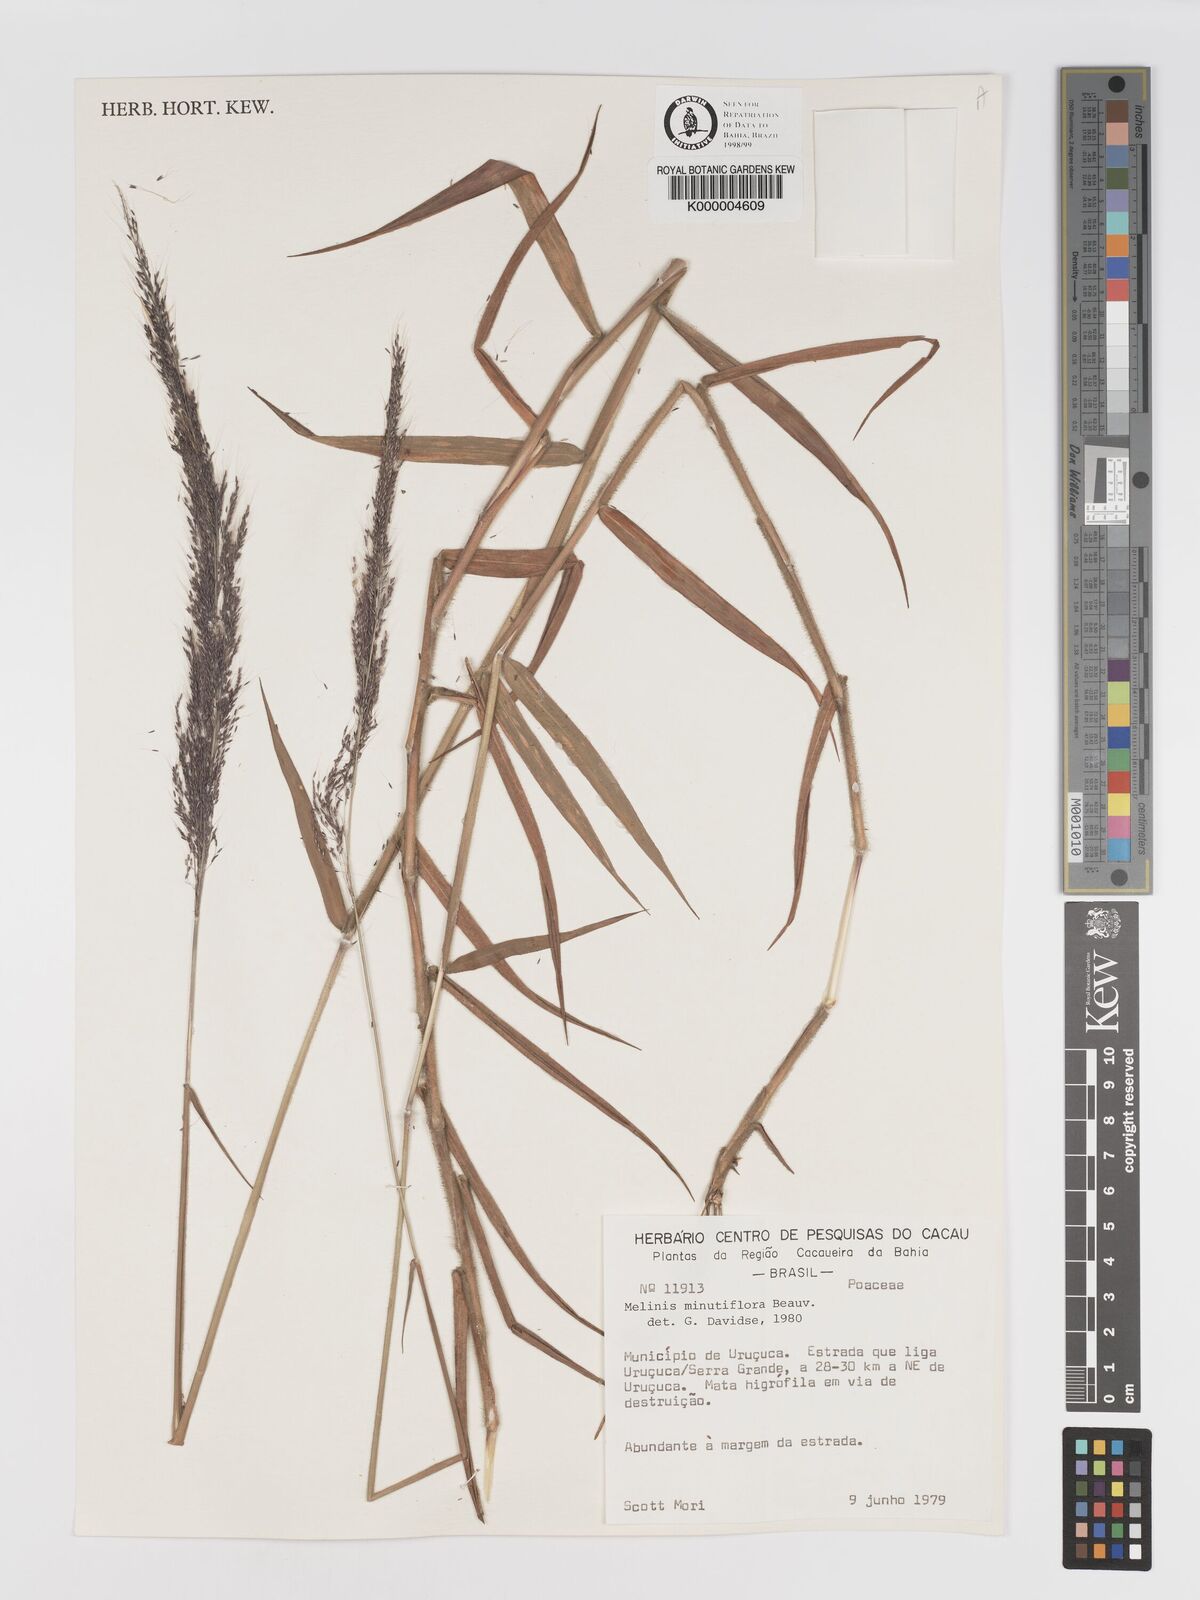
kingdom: Plantae
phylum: Tracheophyta
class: Liliopsida
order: Poales
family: Poaceae
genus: Melinis
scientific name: Melinis minutiflora
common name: Molassesgrass
